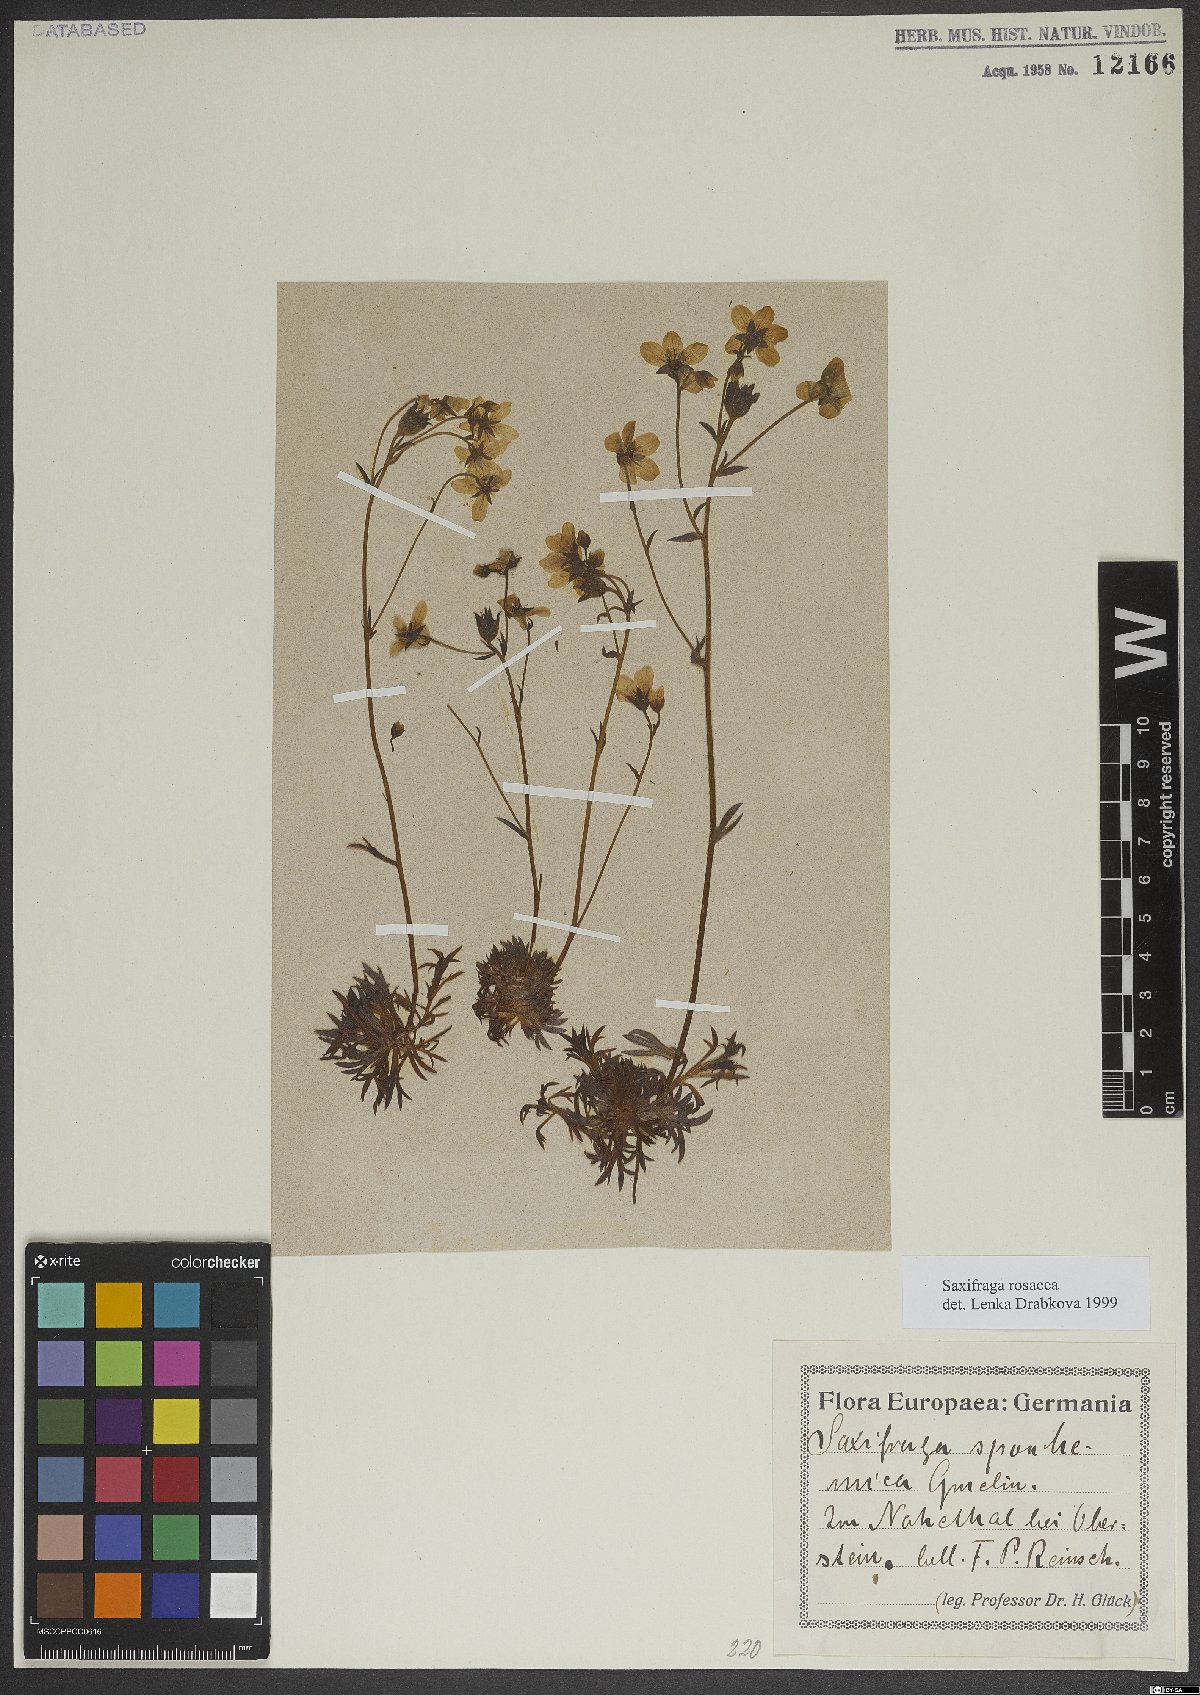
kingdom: Plantae
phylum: Tracheophyta
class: Magnoliopsida
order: Saxifragales
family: Saxifragaceae
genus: Saxifraga
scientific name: Saxifraga rosacea
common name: Irish saxifrage
